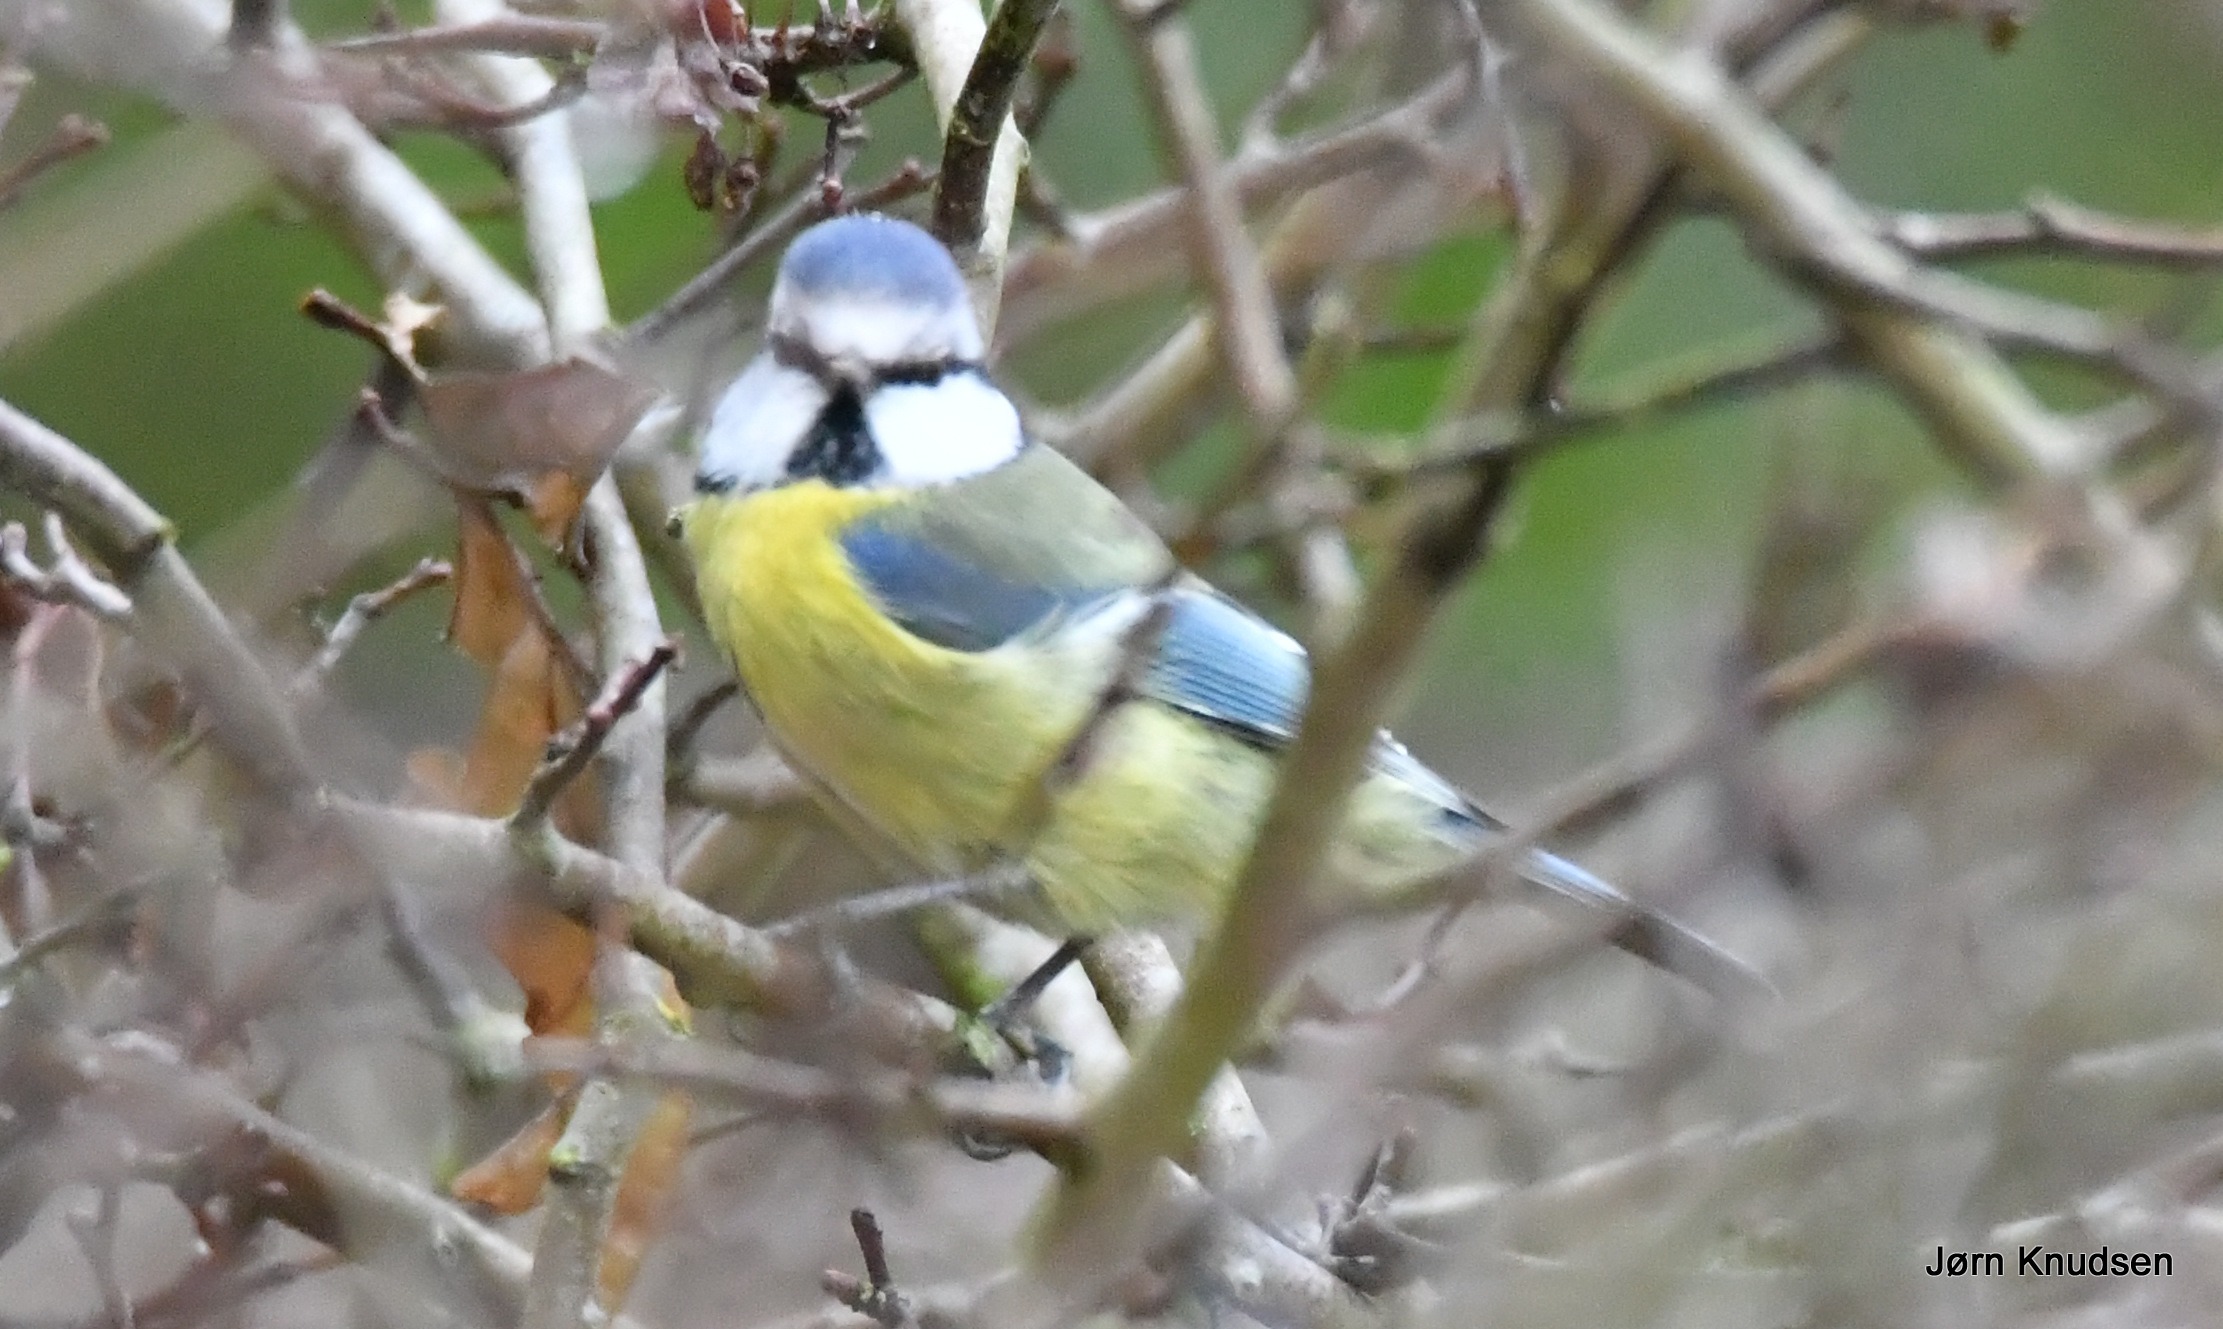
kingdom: Animalia
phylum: Chordata
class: Aves
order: Passeriformes
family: Paridae
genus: Cyanistes
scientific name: Cyanistes caeruleus
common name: Blåmejse
